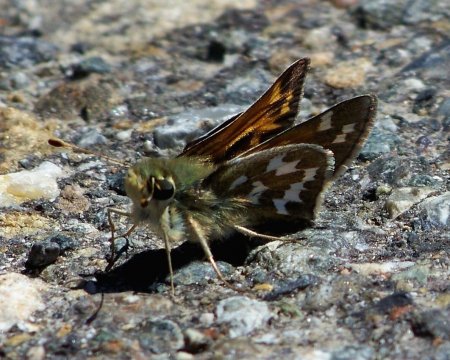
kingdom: Animalia
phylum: Arthropoda
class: Insecta
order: Lepidoptera
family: Hesperiidae
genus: Hesperia
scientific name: Hesperia juba
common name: Juba Skipper
